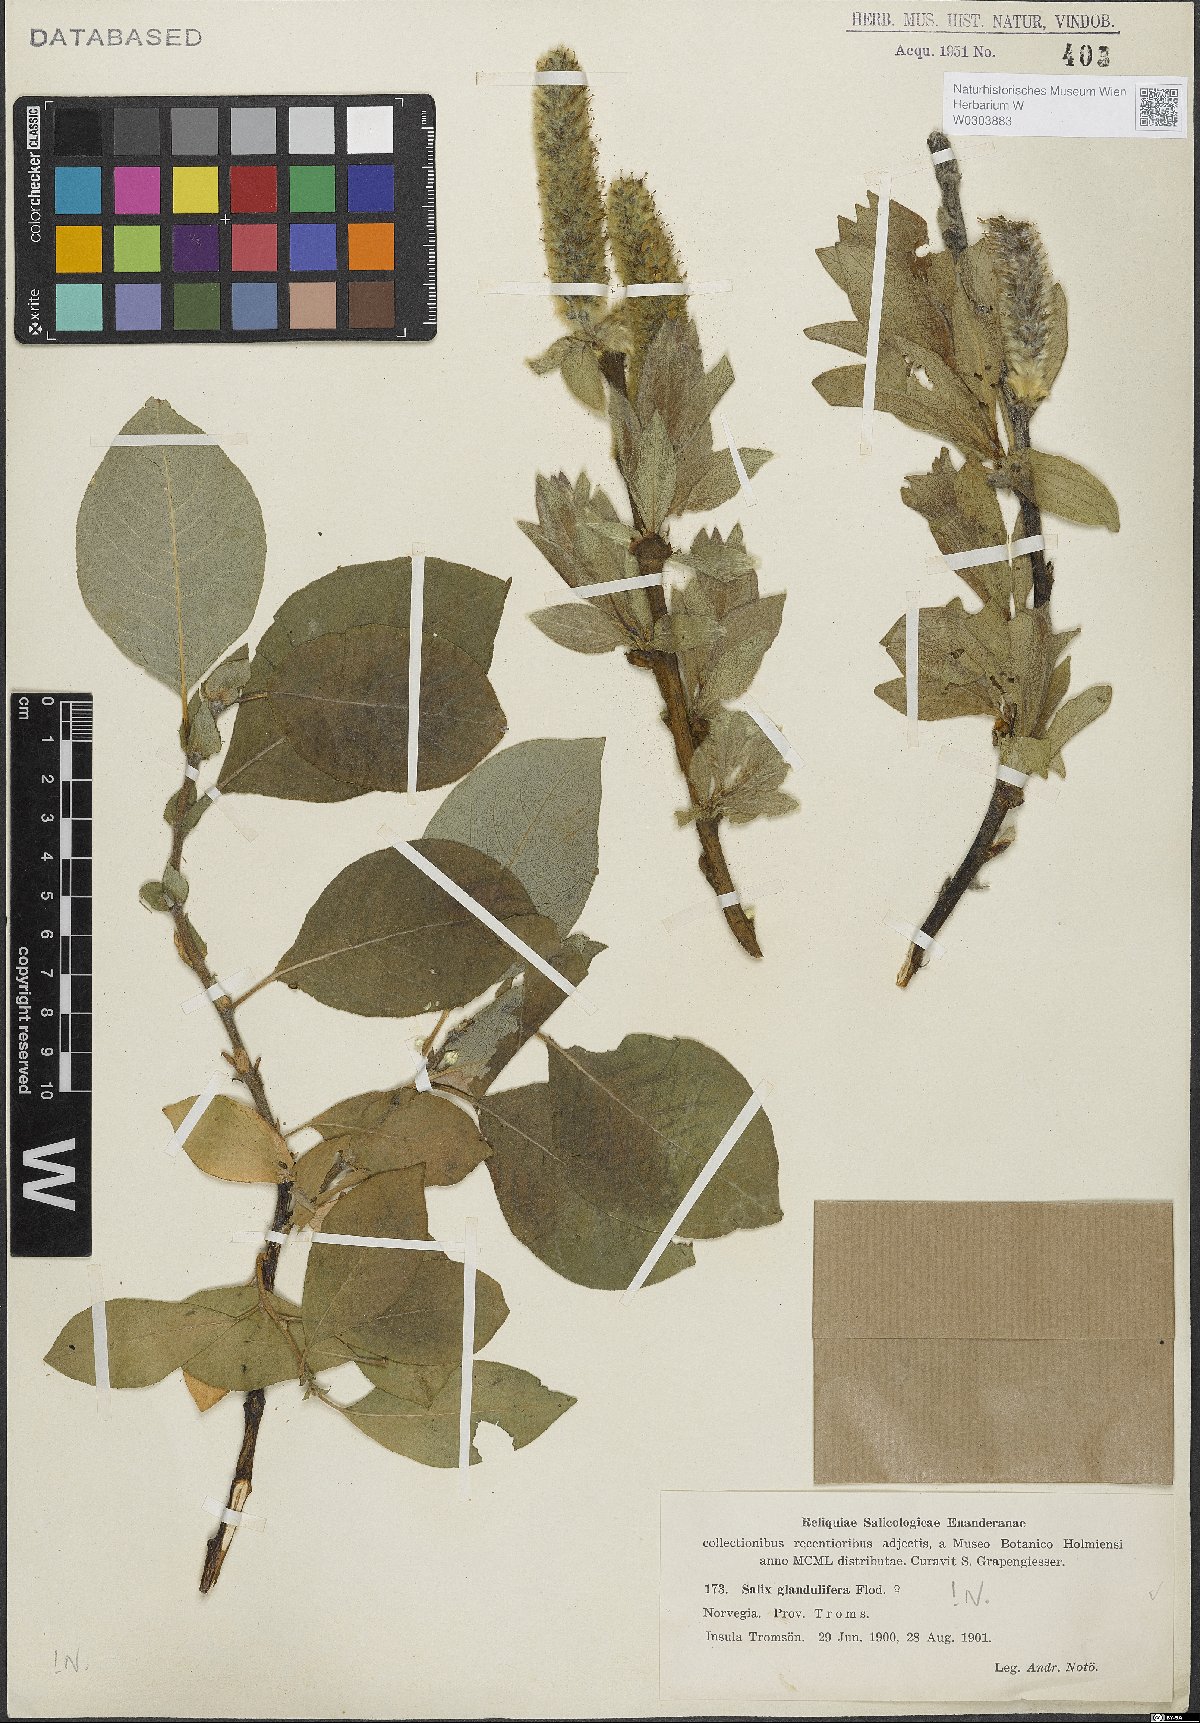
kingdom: Plantae
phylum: Tracheophyta
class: Magnoliopsida
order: Malpighiales
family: Salicaceae
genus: Salix
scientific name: Salix lanata
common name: Woolly willow
